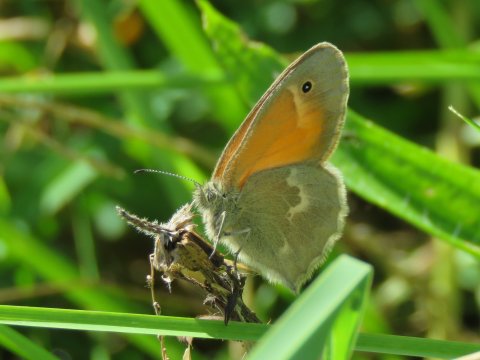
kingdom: Animalia
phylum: Arthropoda
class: Insecta
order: Lepidoptera
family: Nymphalidae
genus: Coenonympha
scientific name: Coenonympha california
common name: California Ringlet
